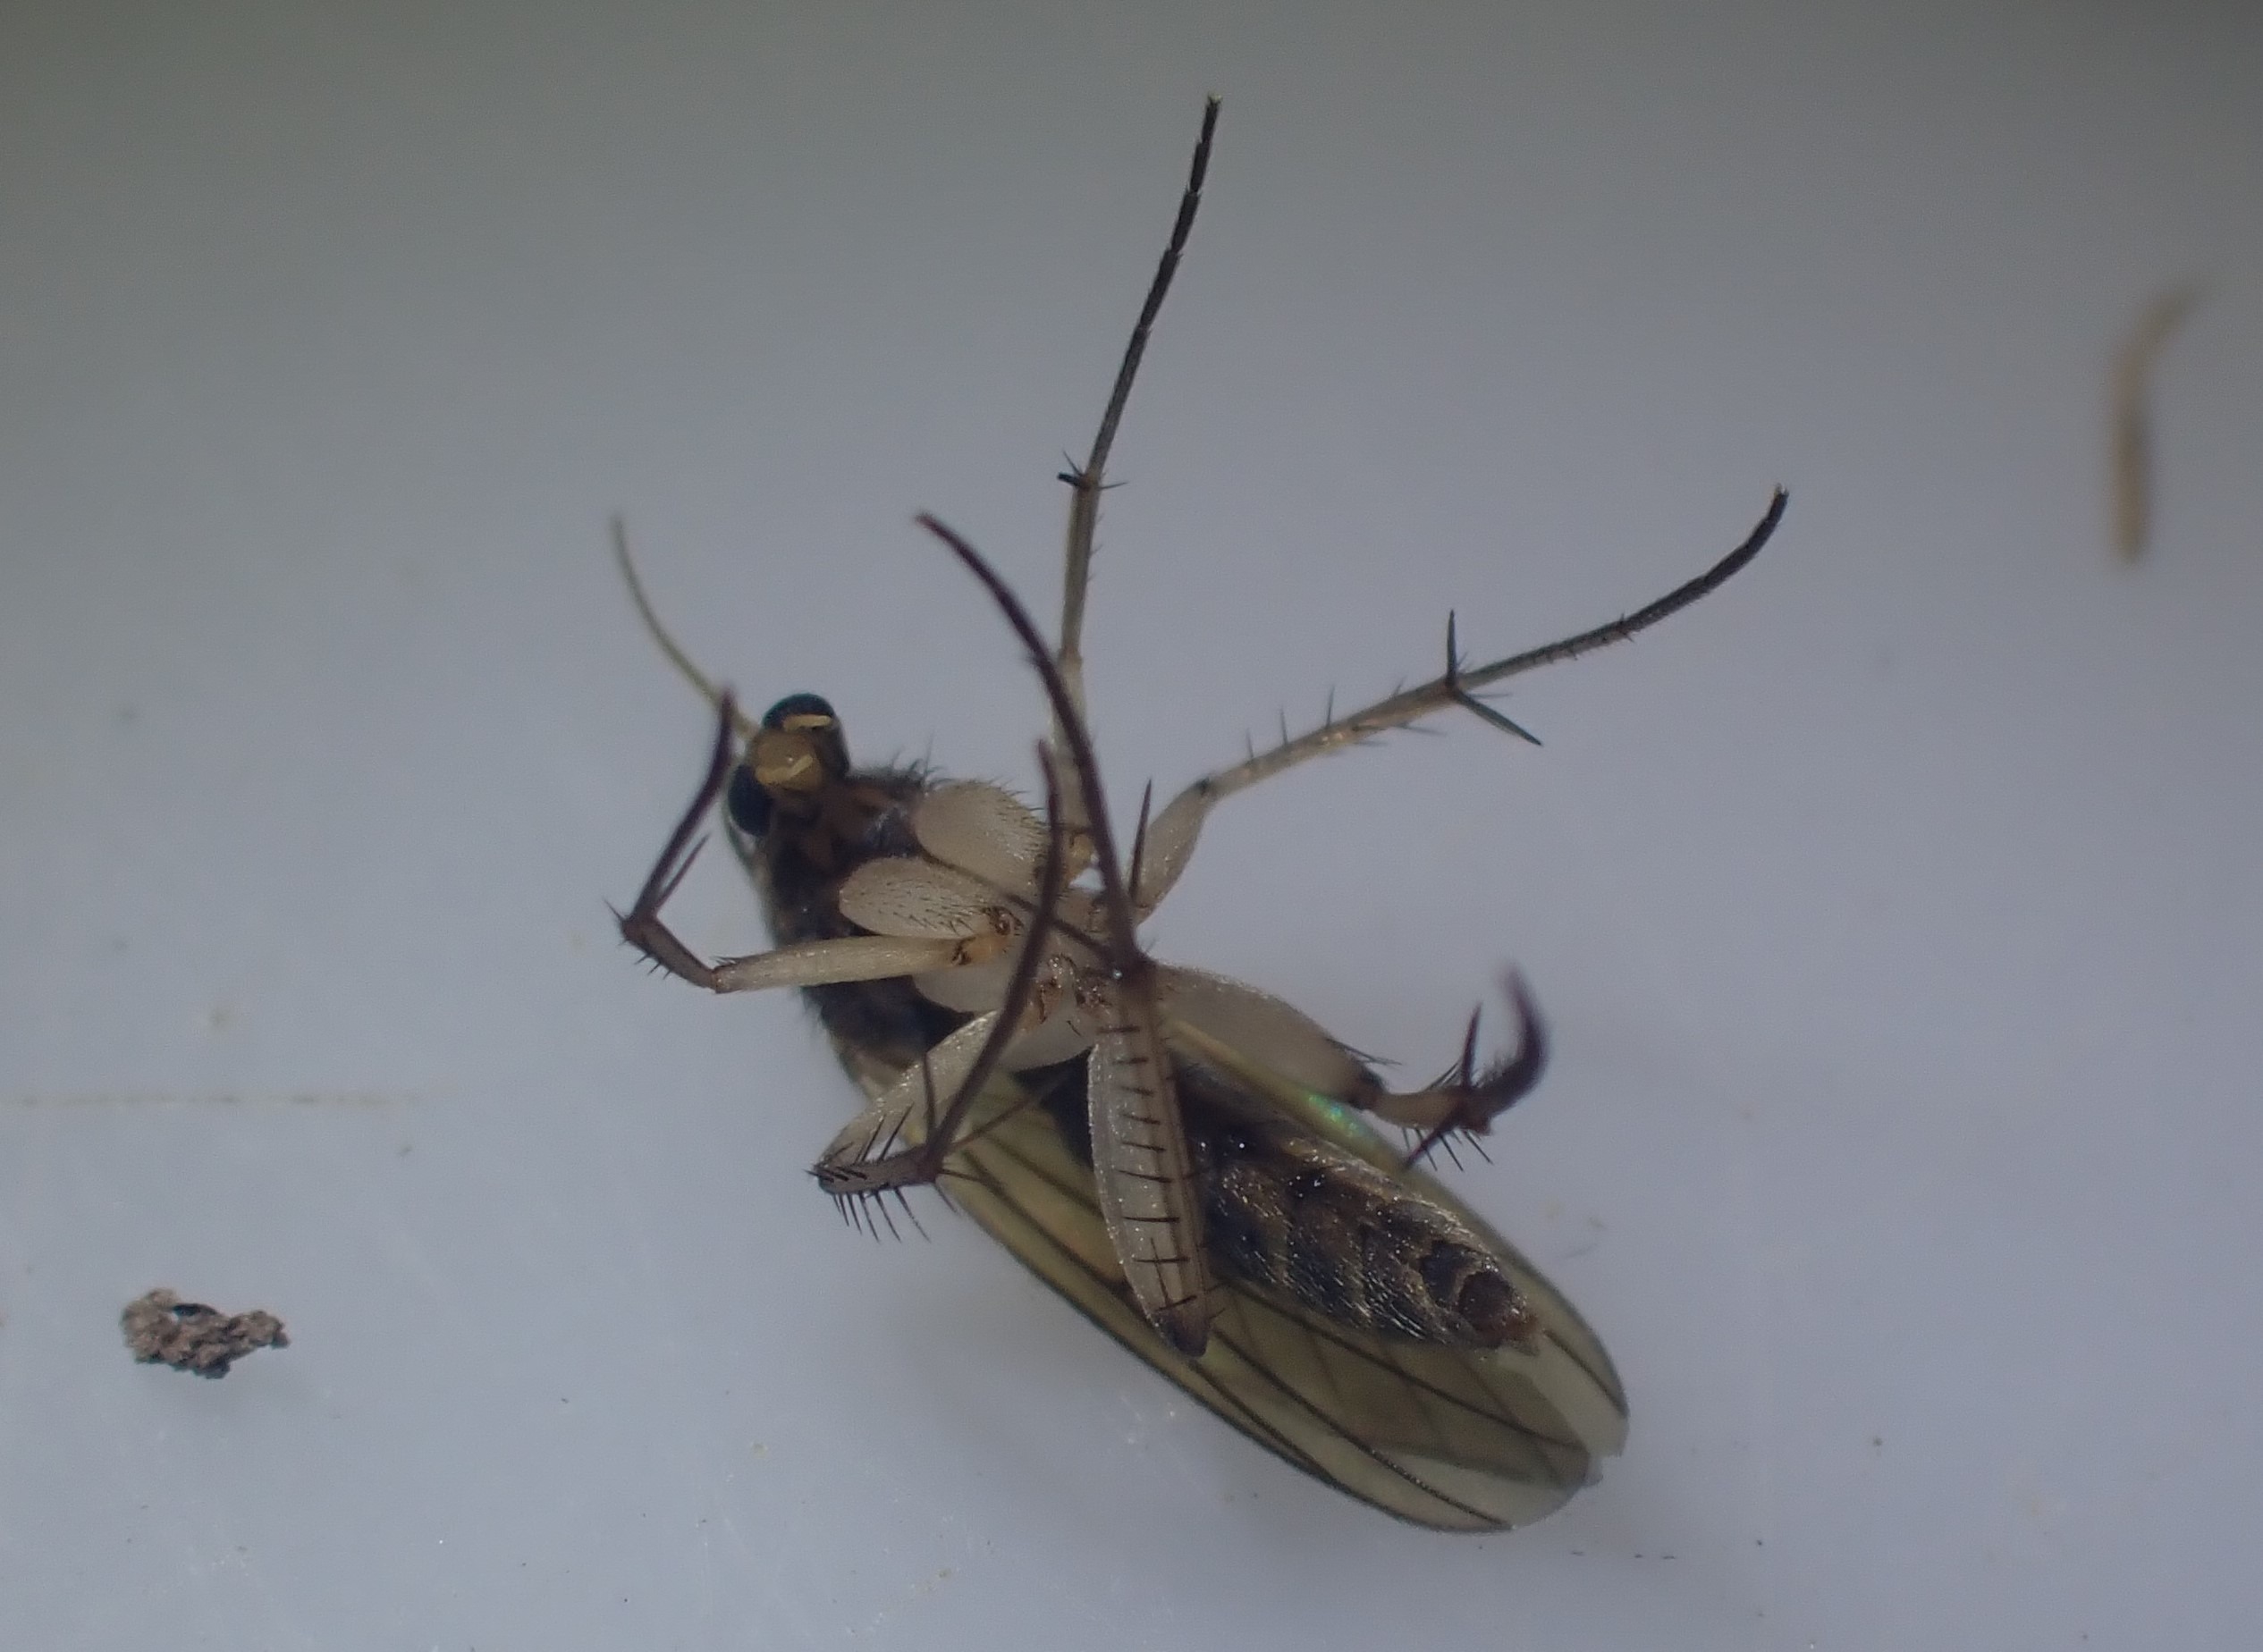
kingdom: Animalia
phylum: Arthropoda
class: Insecta
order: Diptera
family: Mycetophilidae
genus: Mycetophila
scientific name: Mycetophila
